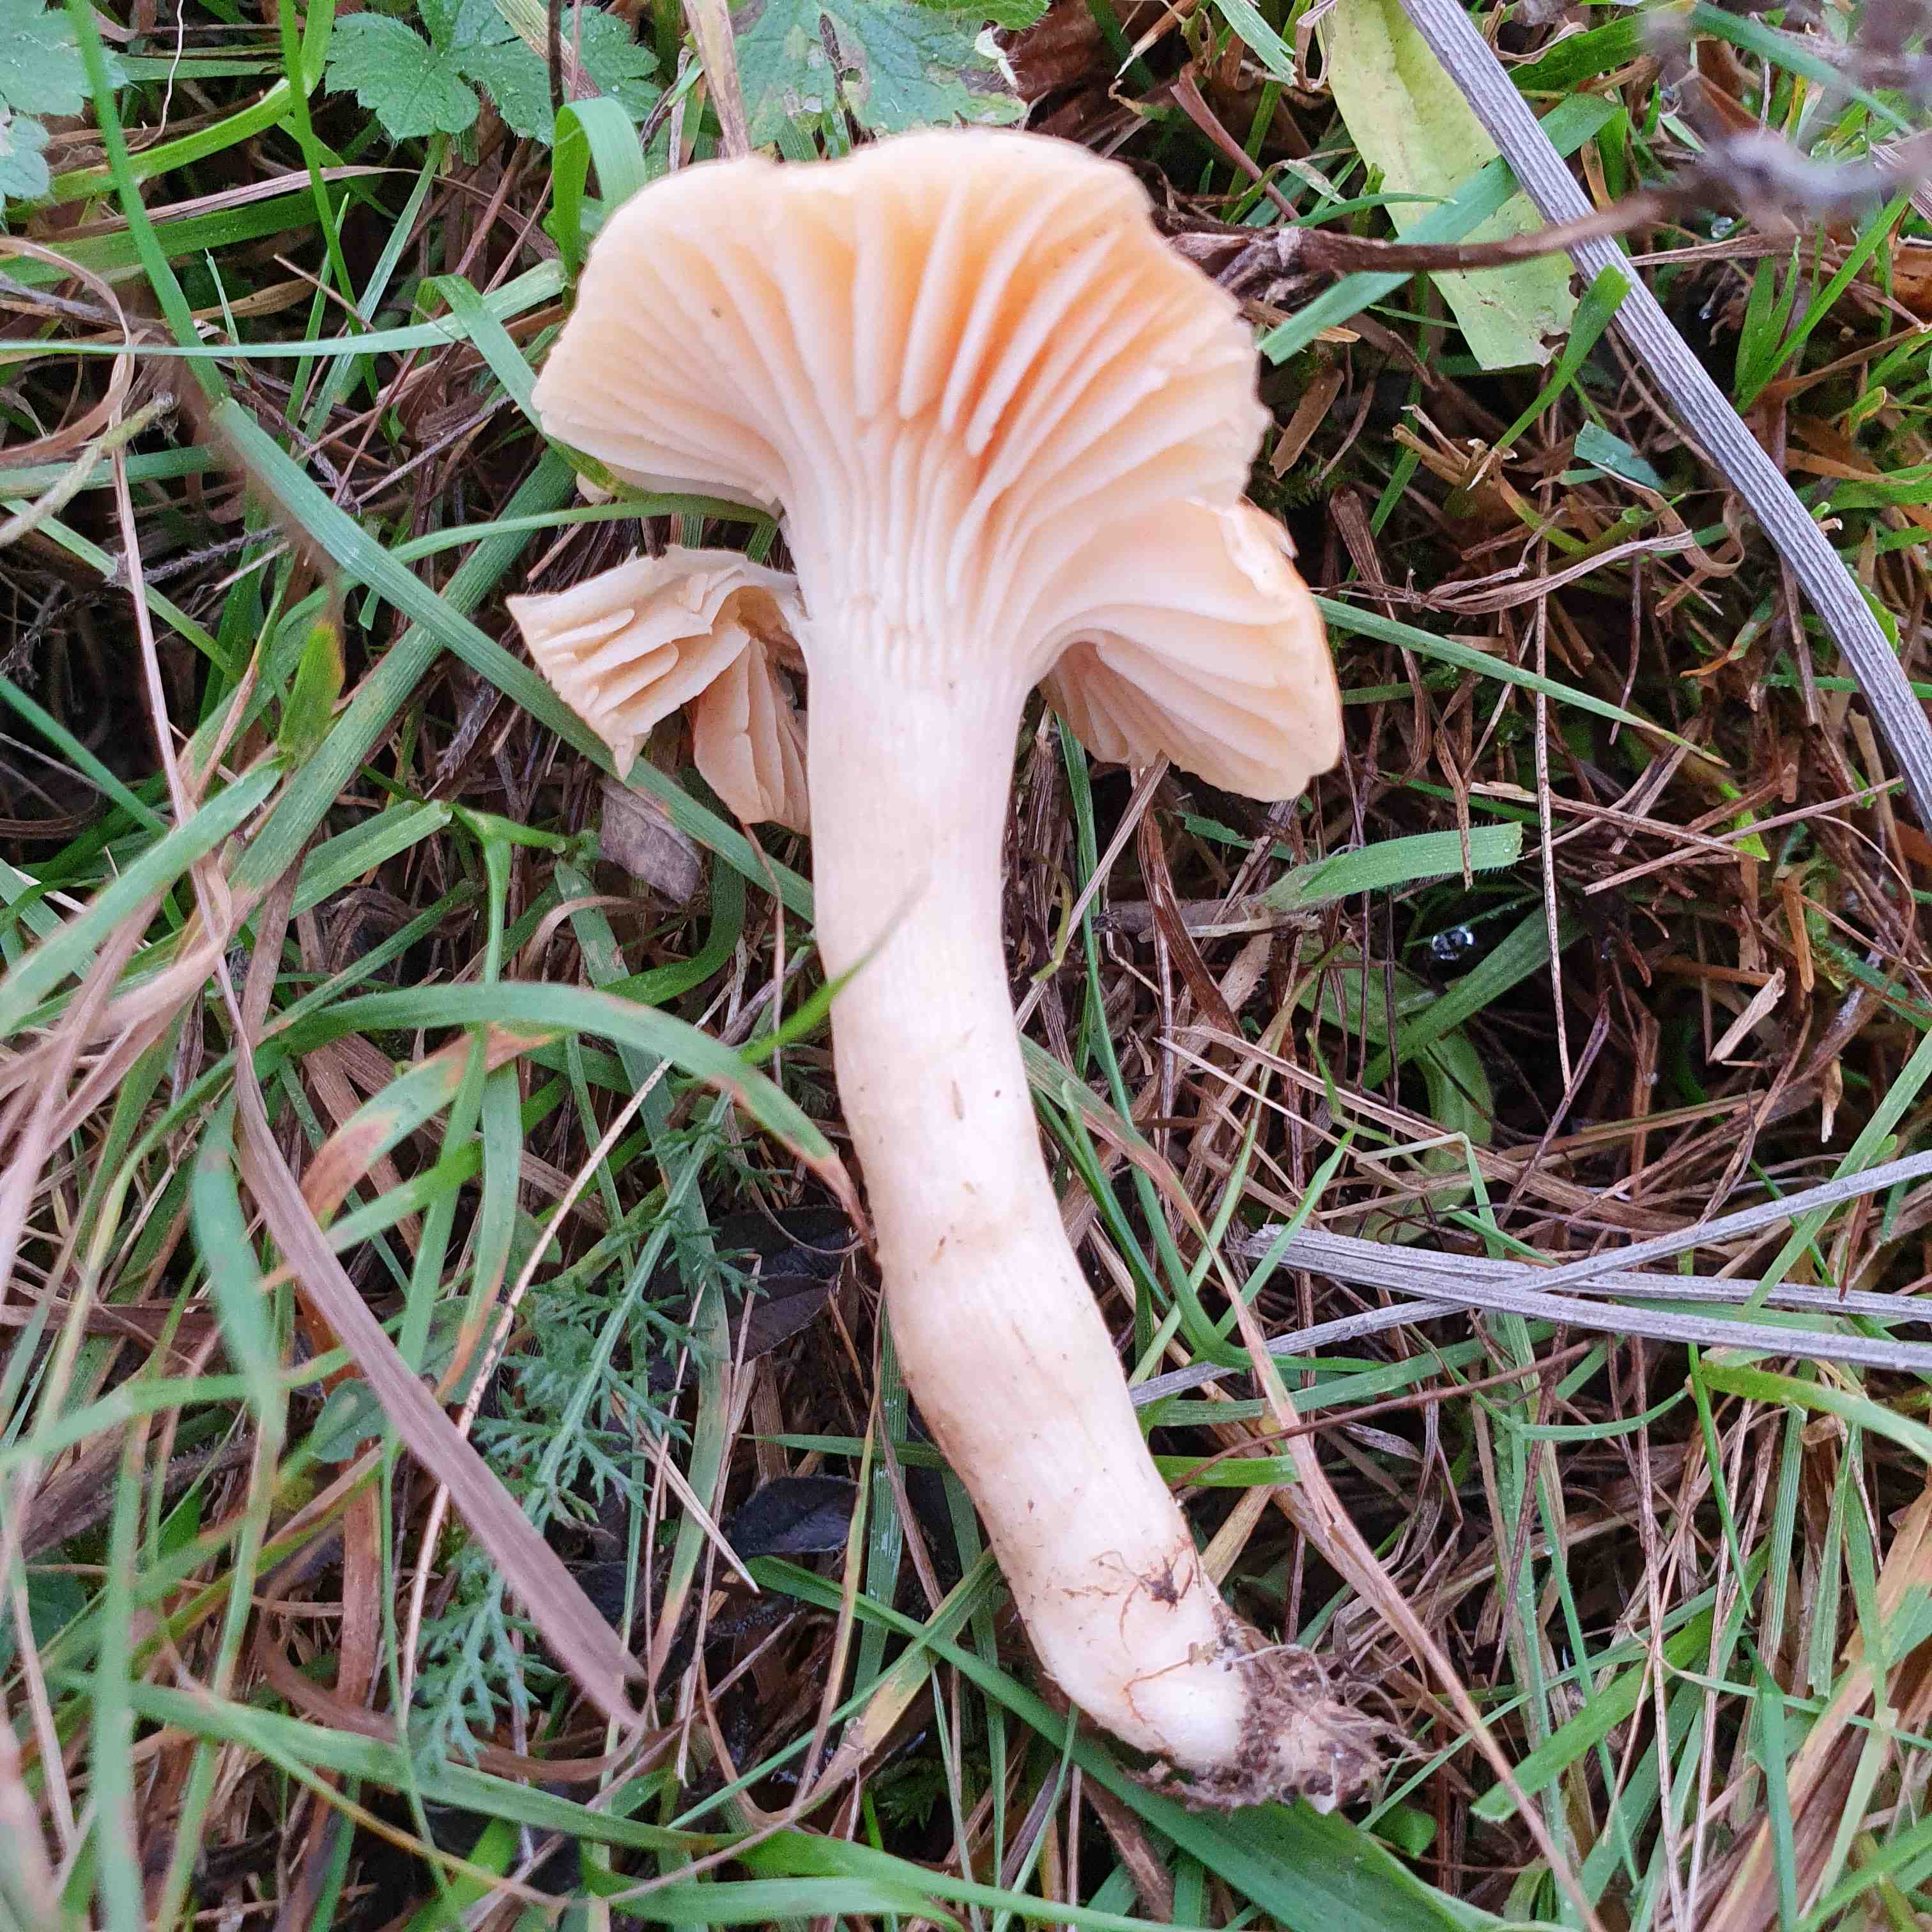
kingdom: Fungi
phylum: Basidiomycota
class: Agaricomycetes
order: Agaricales
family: Hygrophoraceae
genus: Cuphophyllus
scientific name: Cuphophyllus pratensis
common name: eng-vokshat
